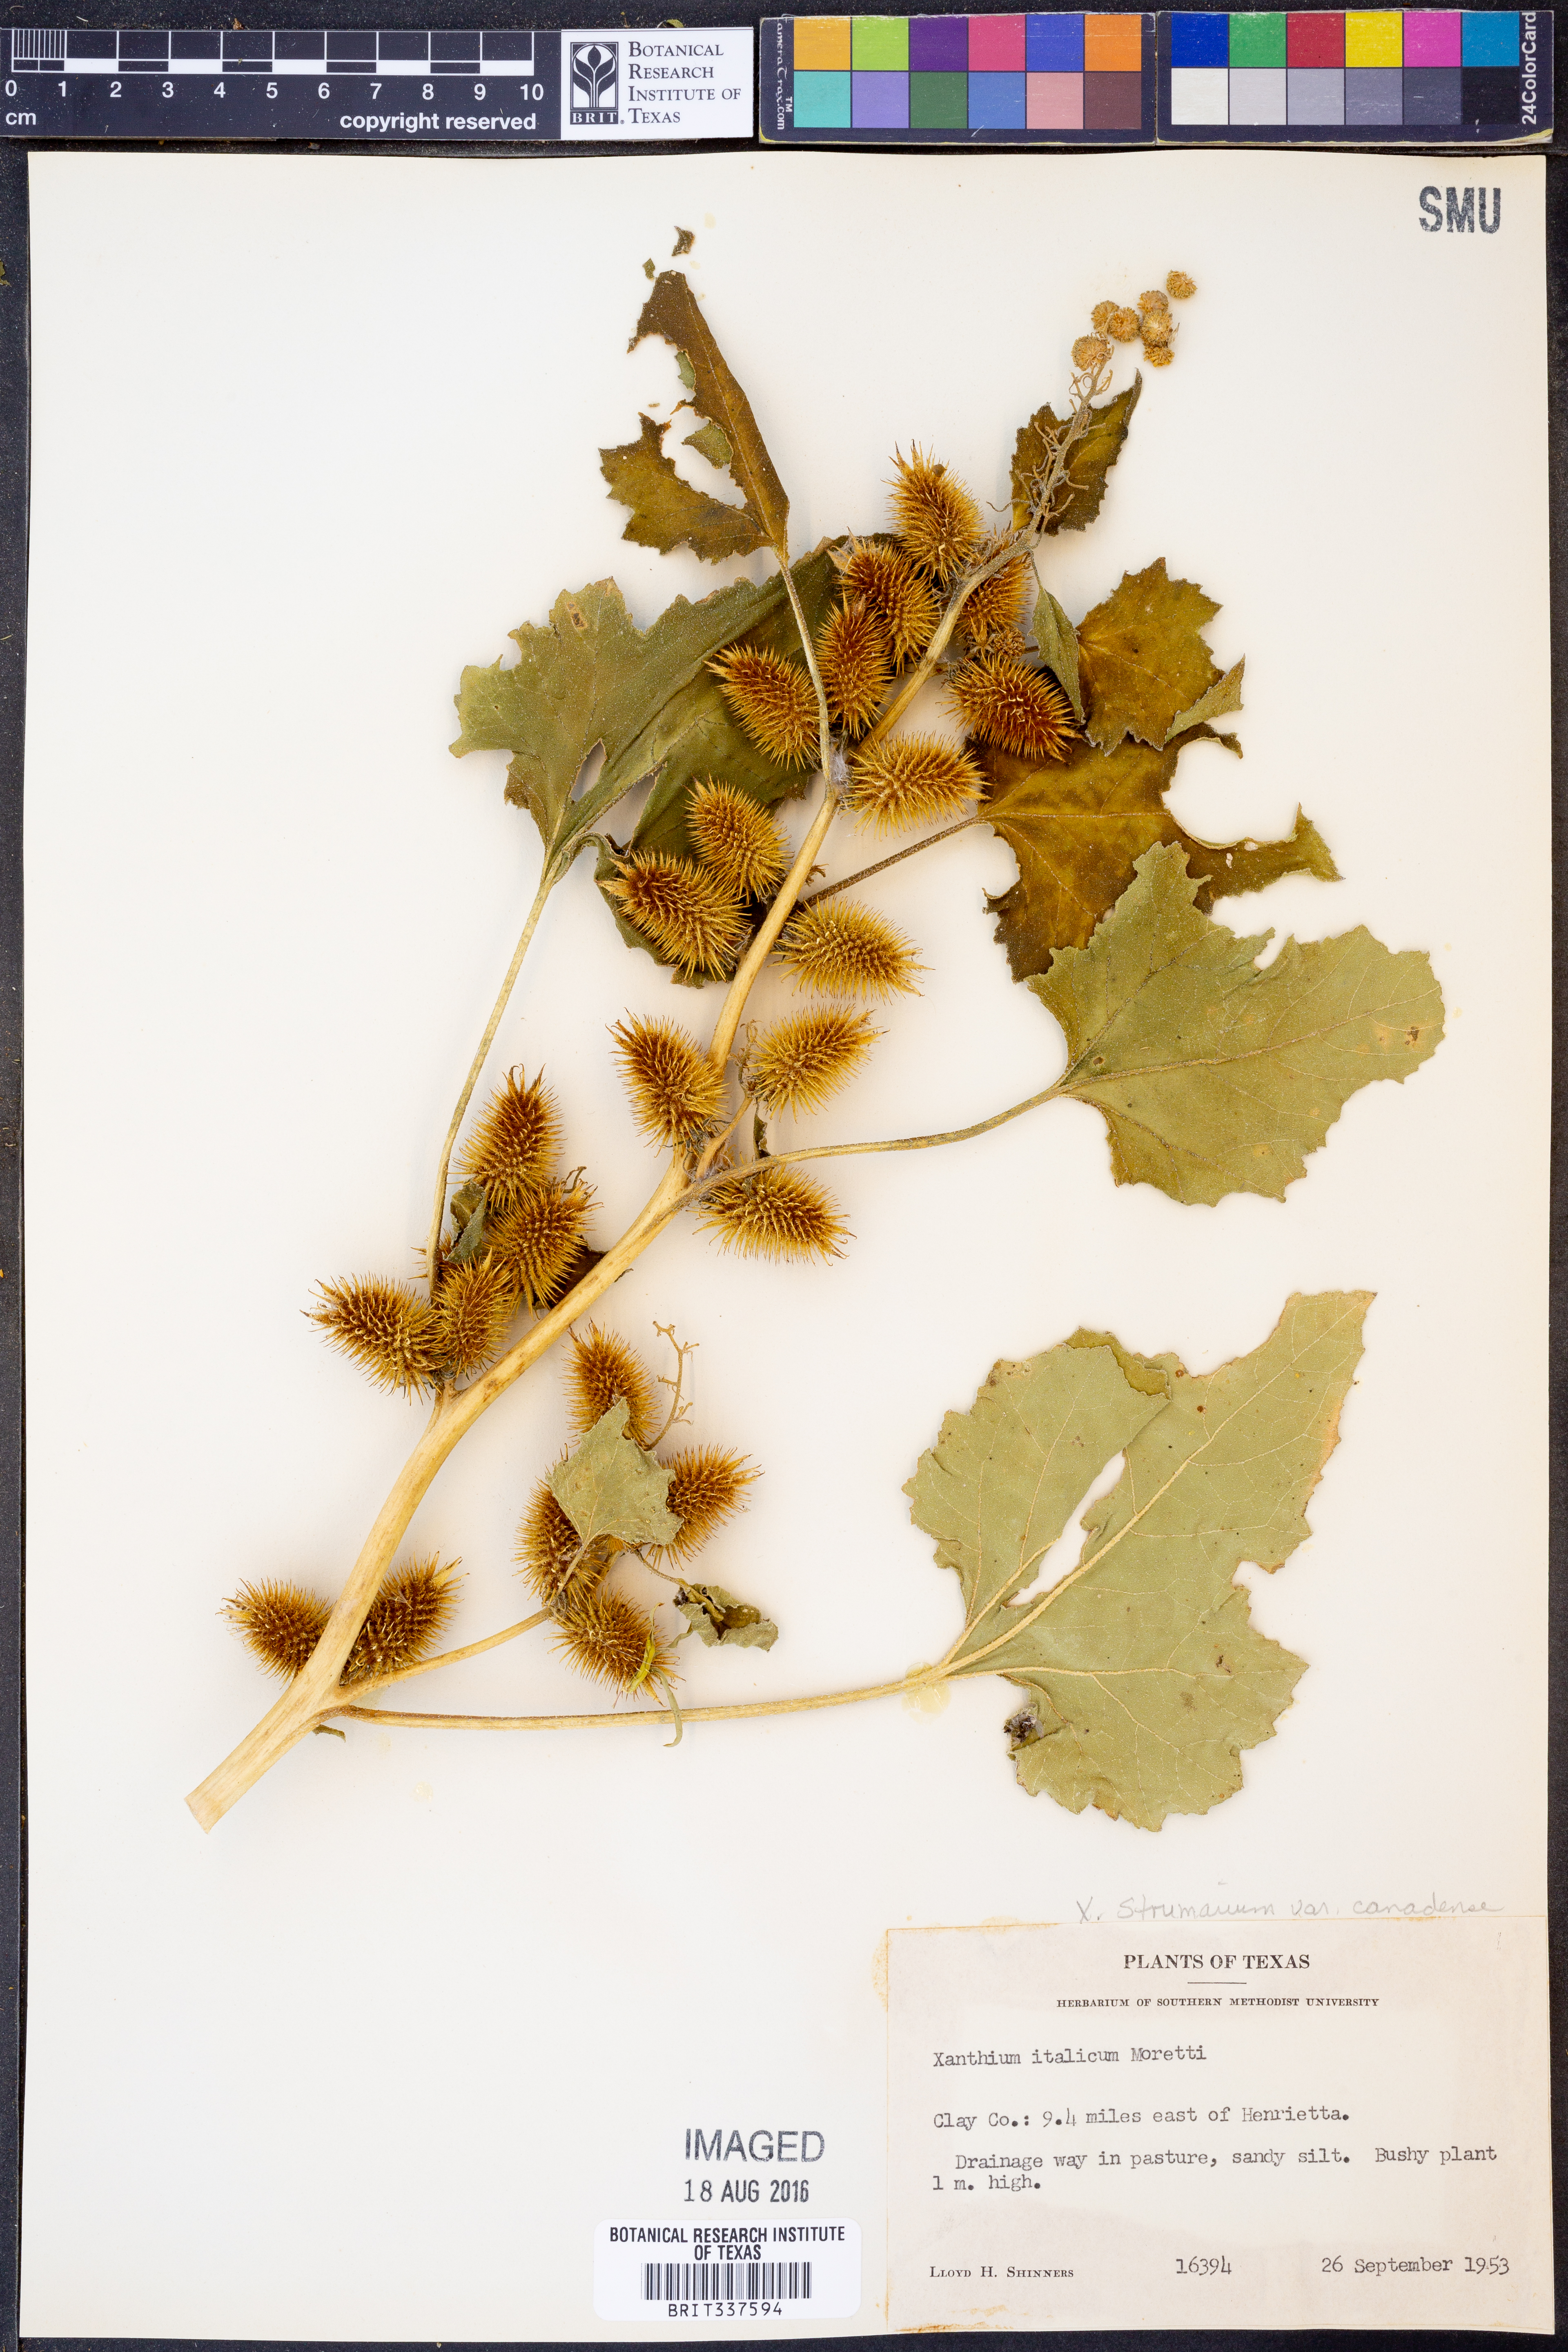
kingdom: Plantae
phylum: Tracheophyta
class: Magnoliopsida
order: Asterales
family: Asteraceae
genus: Xanthium
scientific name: Xanthium orientale
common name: Californian burr
